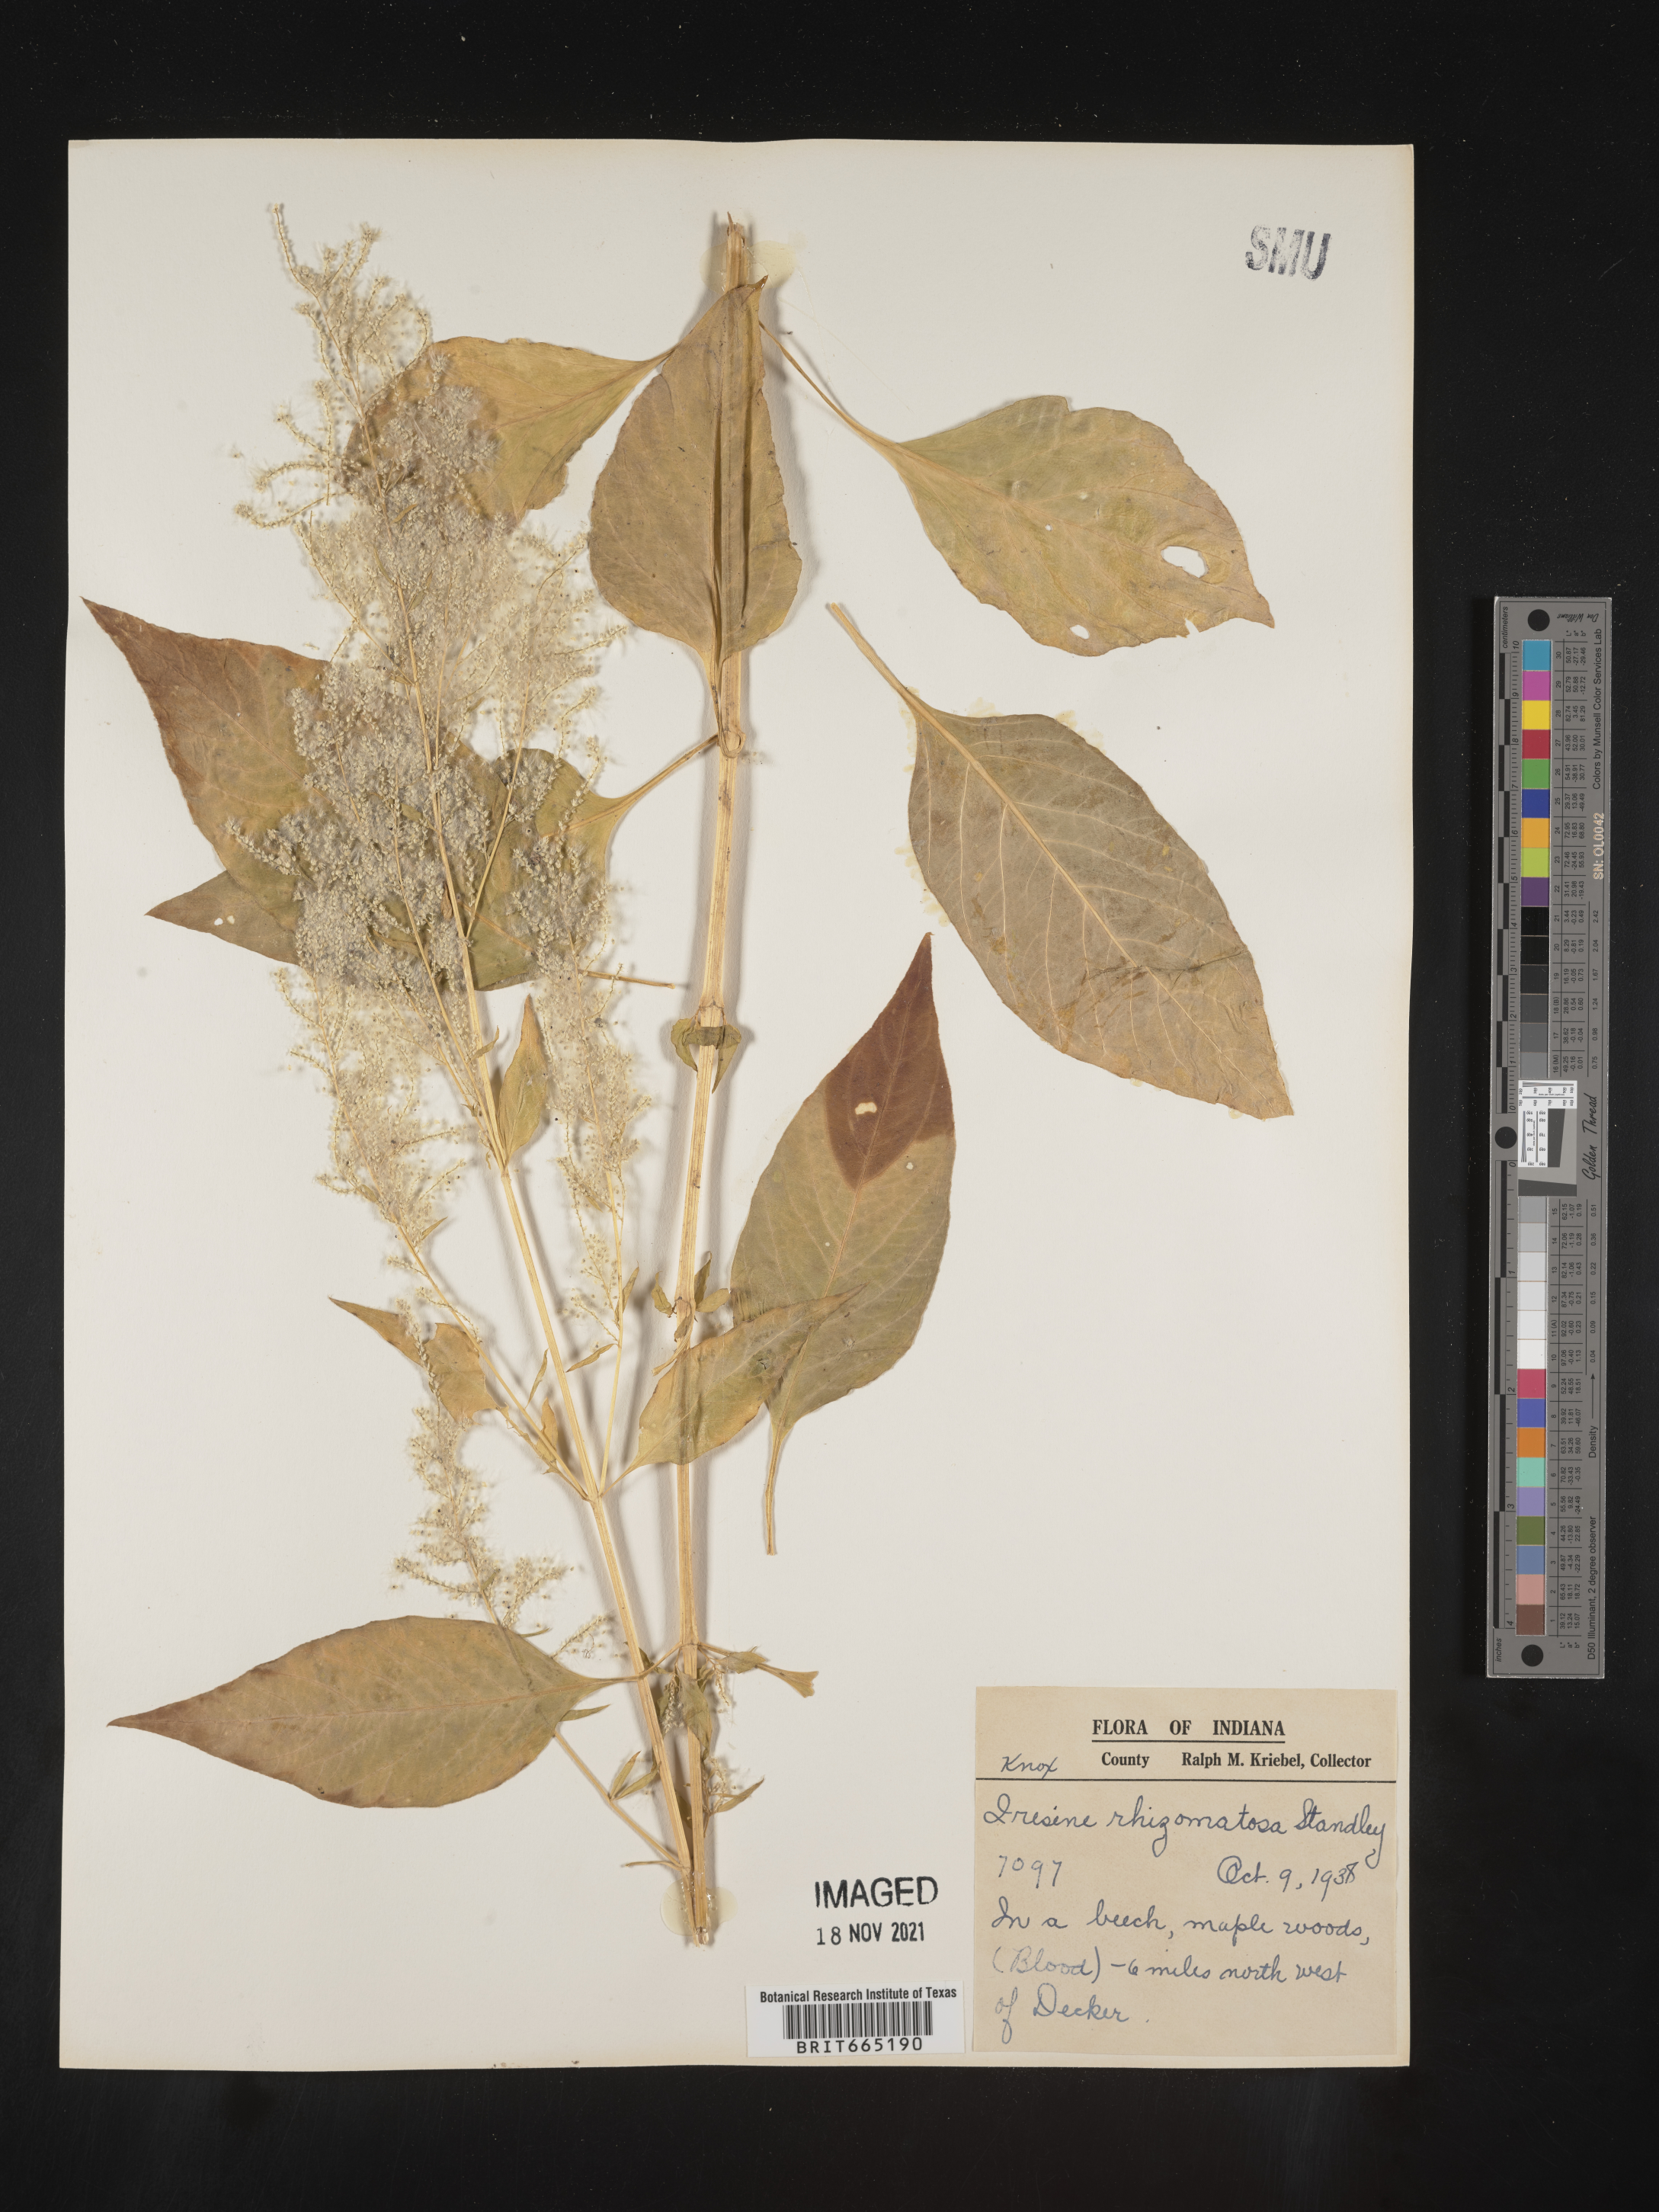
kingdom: Plantae
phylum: Tracheophyta
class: Magnoliopsida
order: Caryophyllales
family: Amaranthaceae
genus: Iresine
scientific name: Iresine rhizomatosa
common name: Juda's-bush
